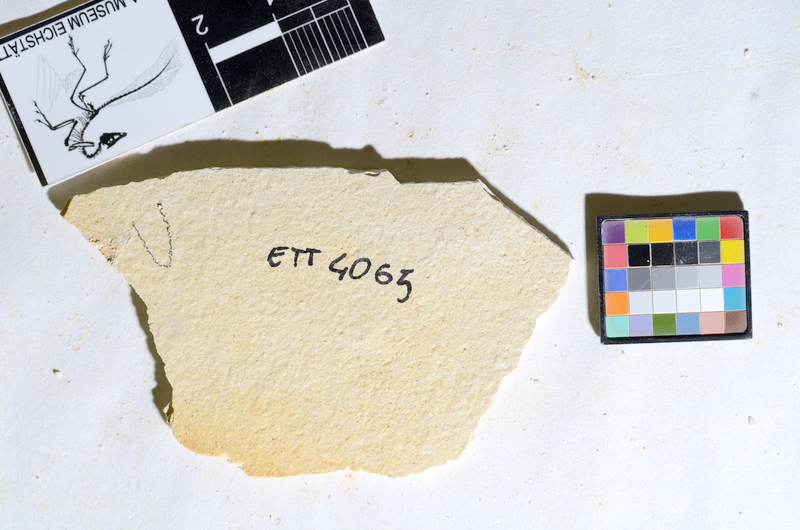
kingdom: Animalia
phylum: Chordata
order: Salmoniformes
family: Orthogonikleithridae
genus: Orthogonikleithrus
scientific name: Orthogonikleithrus hoelli
